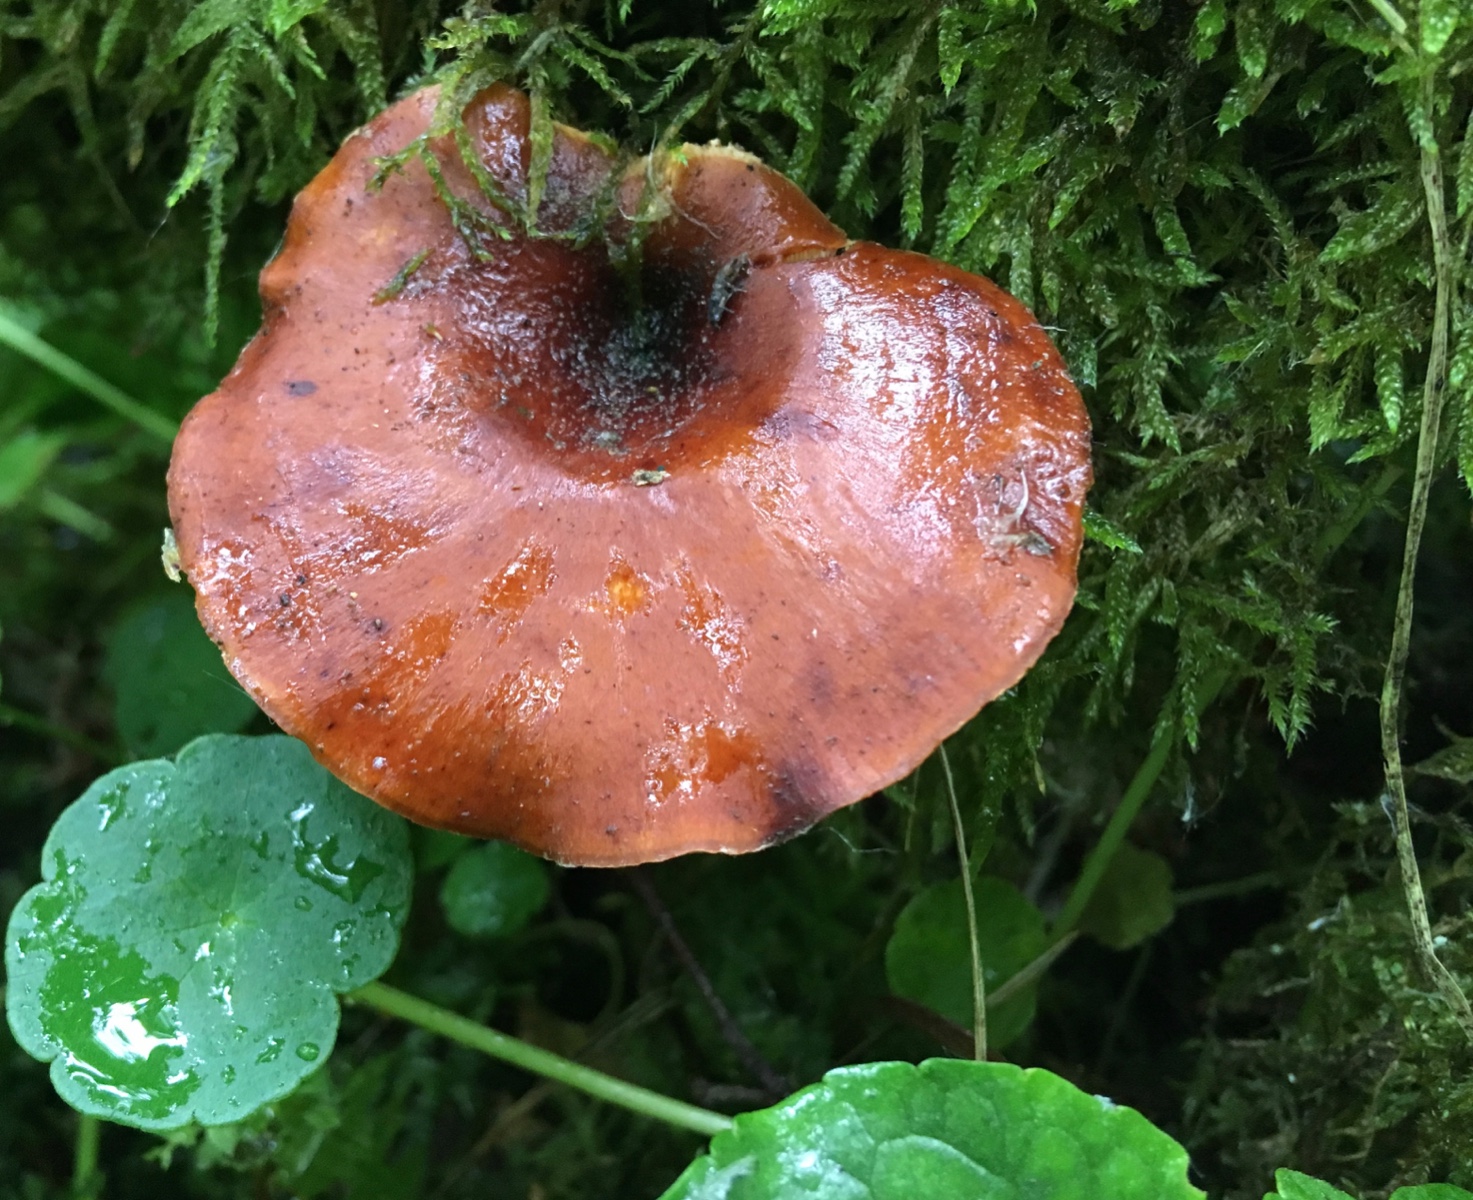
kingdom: Fungi
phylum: Basidiomycota
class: Agaricomycetes
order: Polyporales
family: Polyporaceae
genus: Picipes
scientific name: Picipes tubaeformis
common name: trompet-stilkporesvamp
